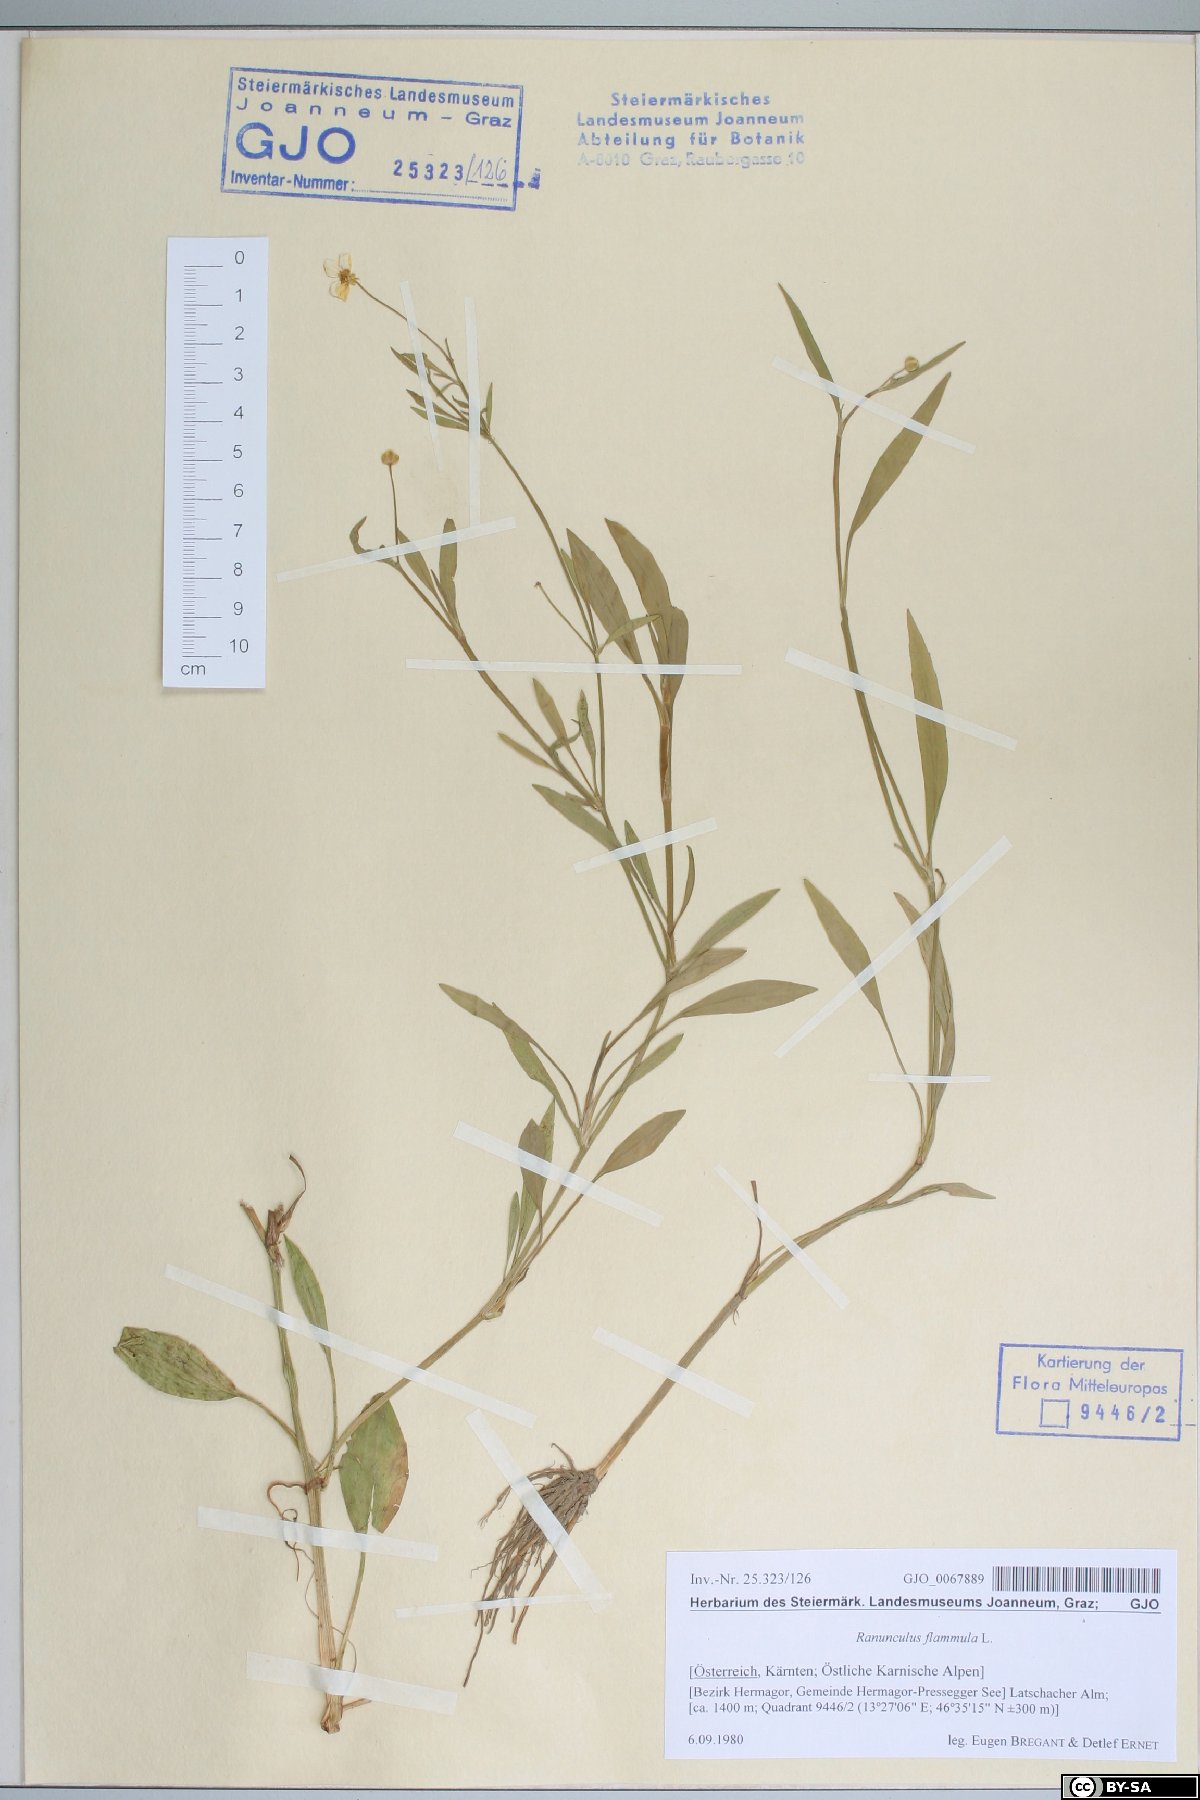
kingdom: Plantae
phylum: Tracheophyta
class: Magnoliopsida
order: Ranunculales
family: Ranunculaceae
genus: Ranunculus
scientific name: Ranunculus flammula
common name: Lesser spearwort
